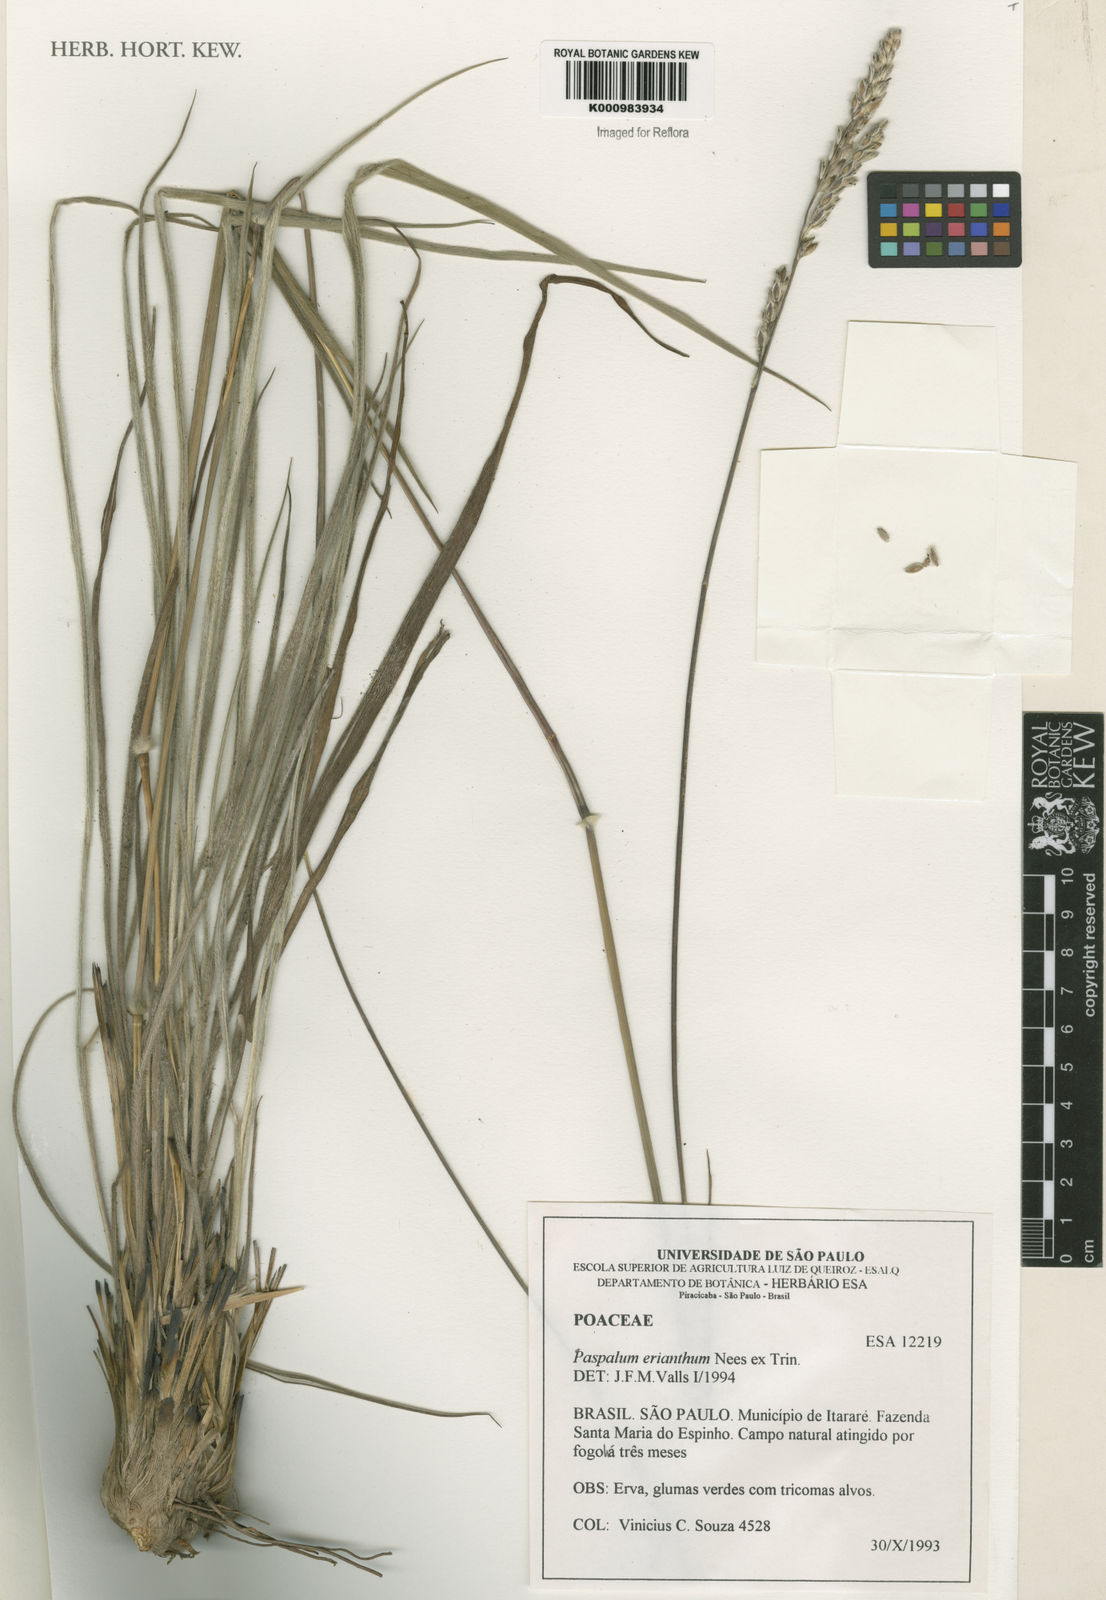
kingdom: Plantae
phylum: Tracheophyta
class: Liliopsida
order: Poales
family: Poaceae
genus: Paspalum
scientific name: Paspalum erianthum
